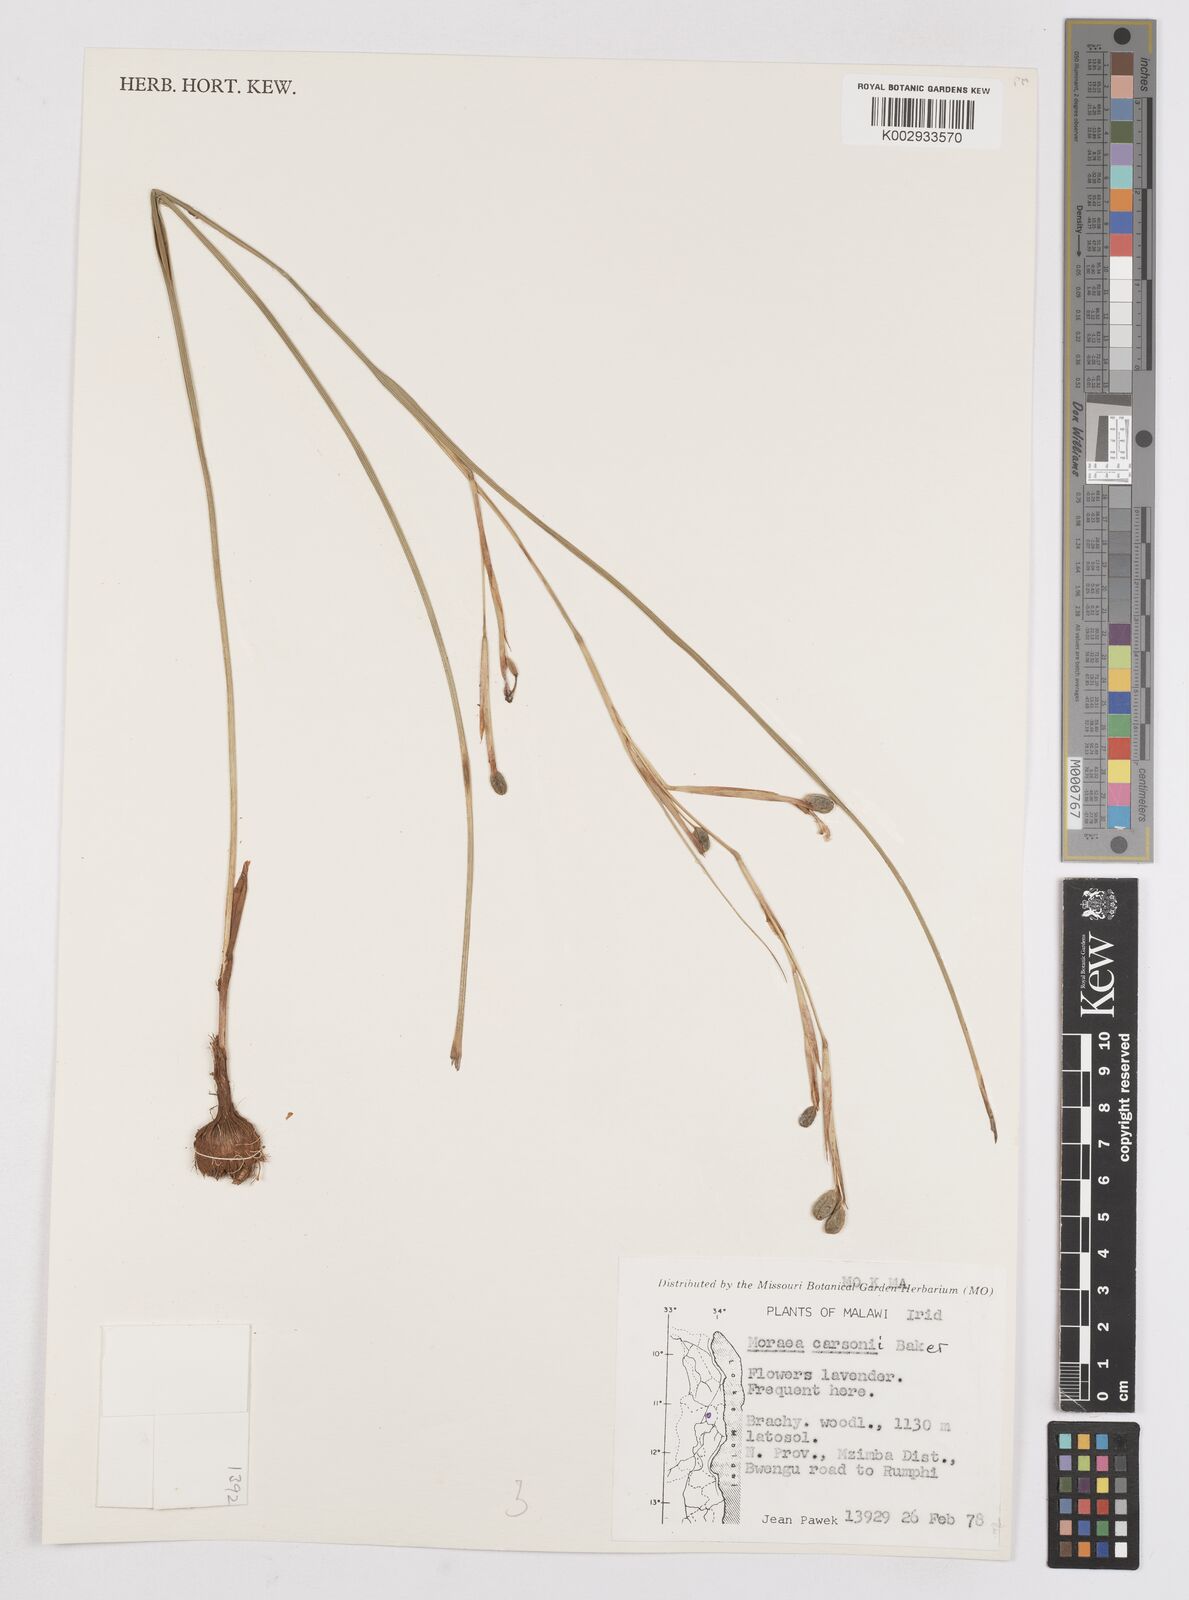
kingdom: Plantae
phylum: Tracheophyta
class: Liliopsida
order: Asparagales
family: Iridaceae
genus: Moraea
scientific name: Moraea carsonii
